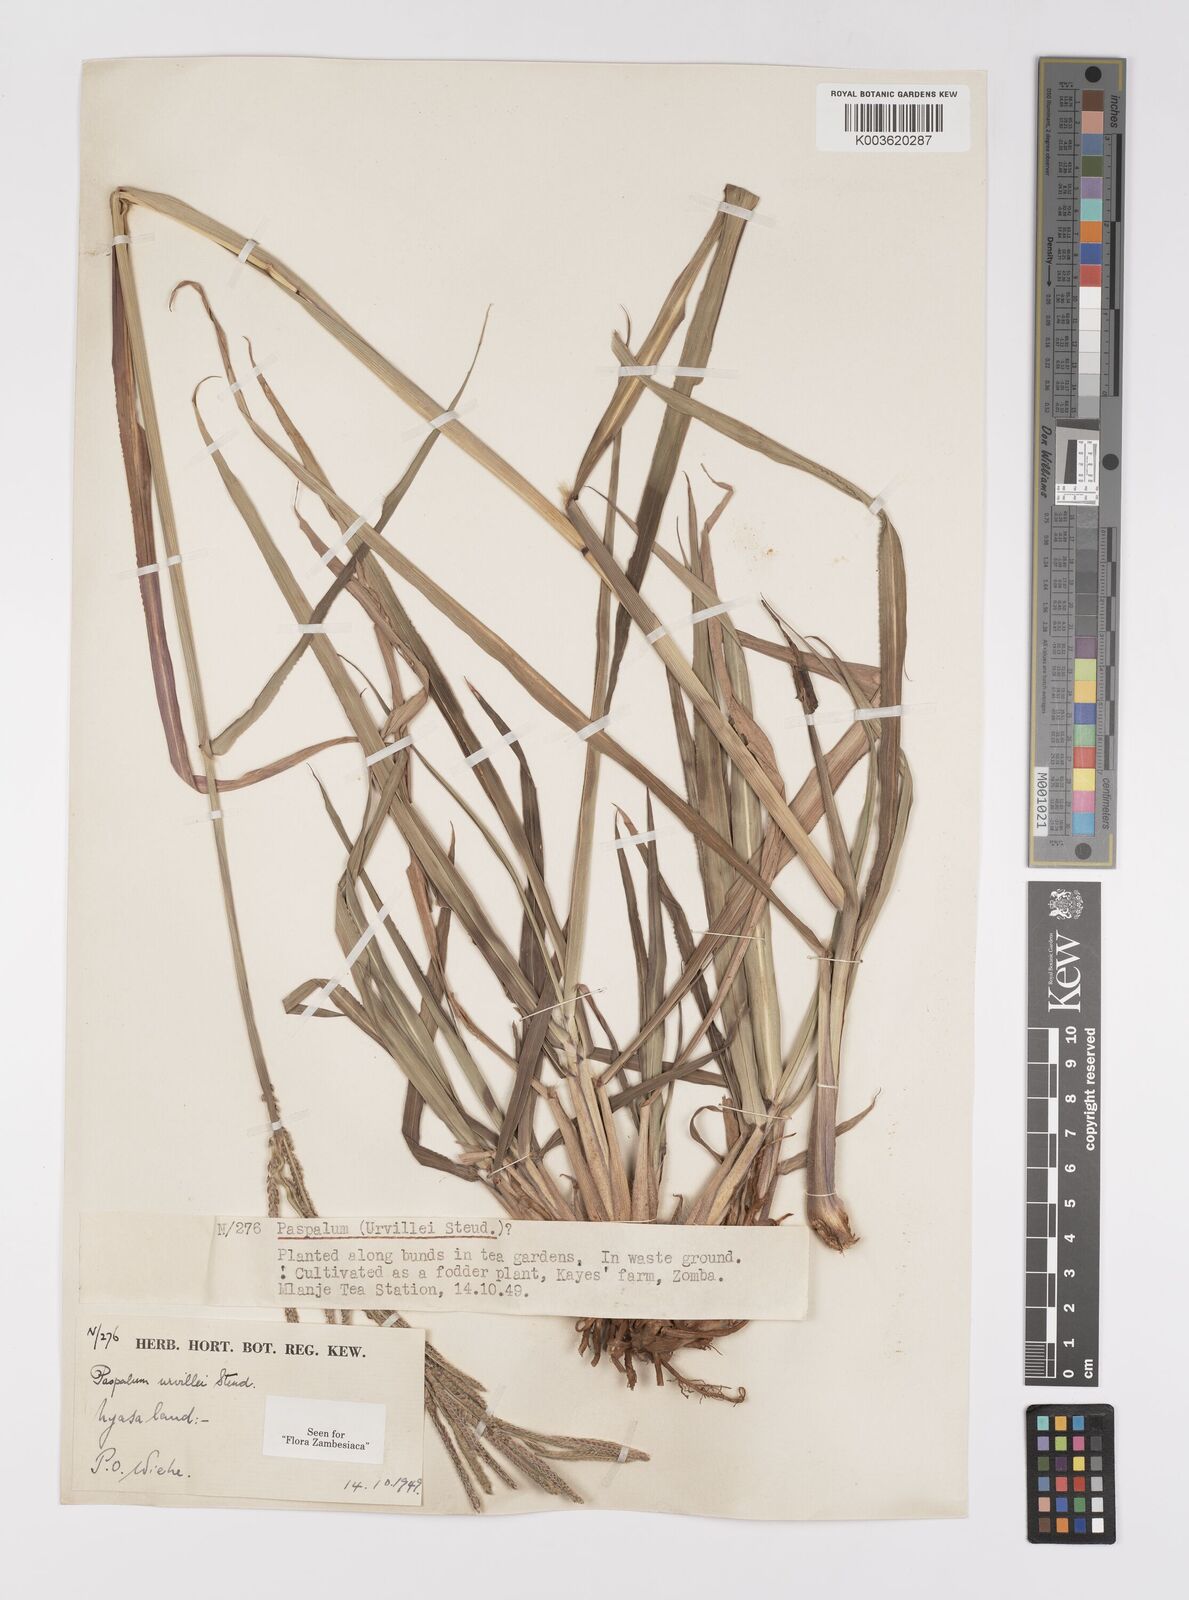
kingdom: Plantae
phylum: Tracheophyta
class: Liliopsida
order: Poales
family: Poaceae
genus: Paspalum
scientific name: Paspalum urvillei
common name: Vasey's grass
